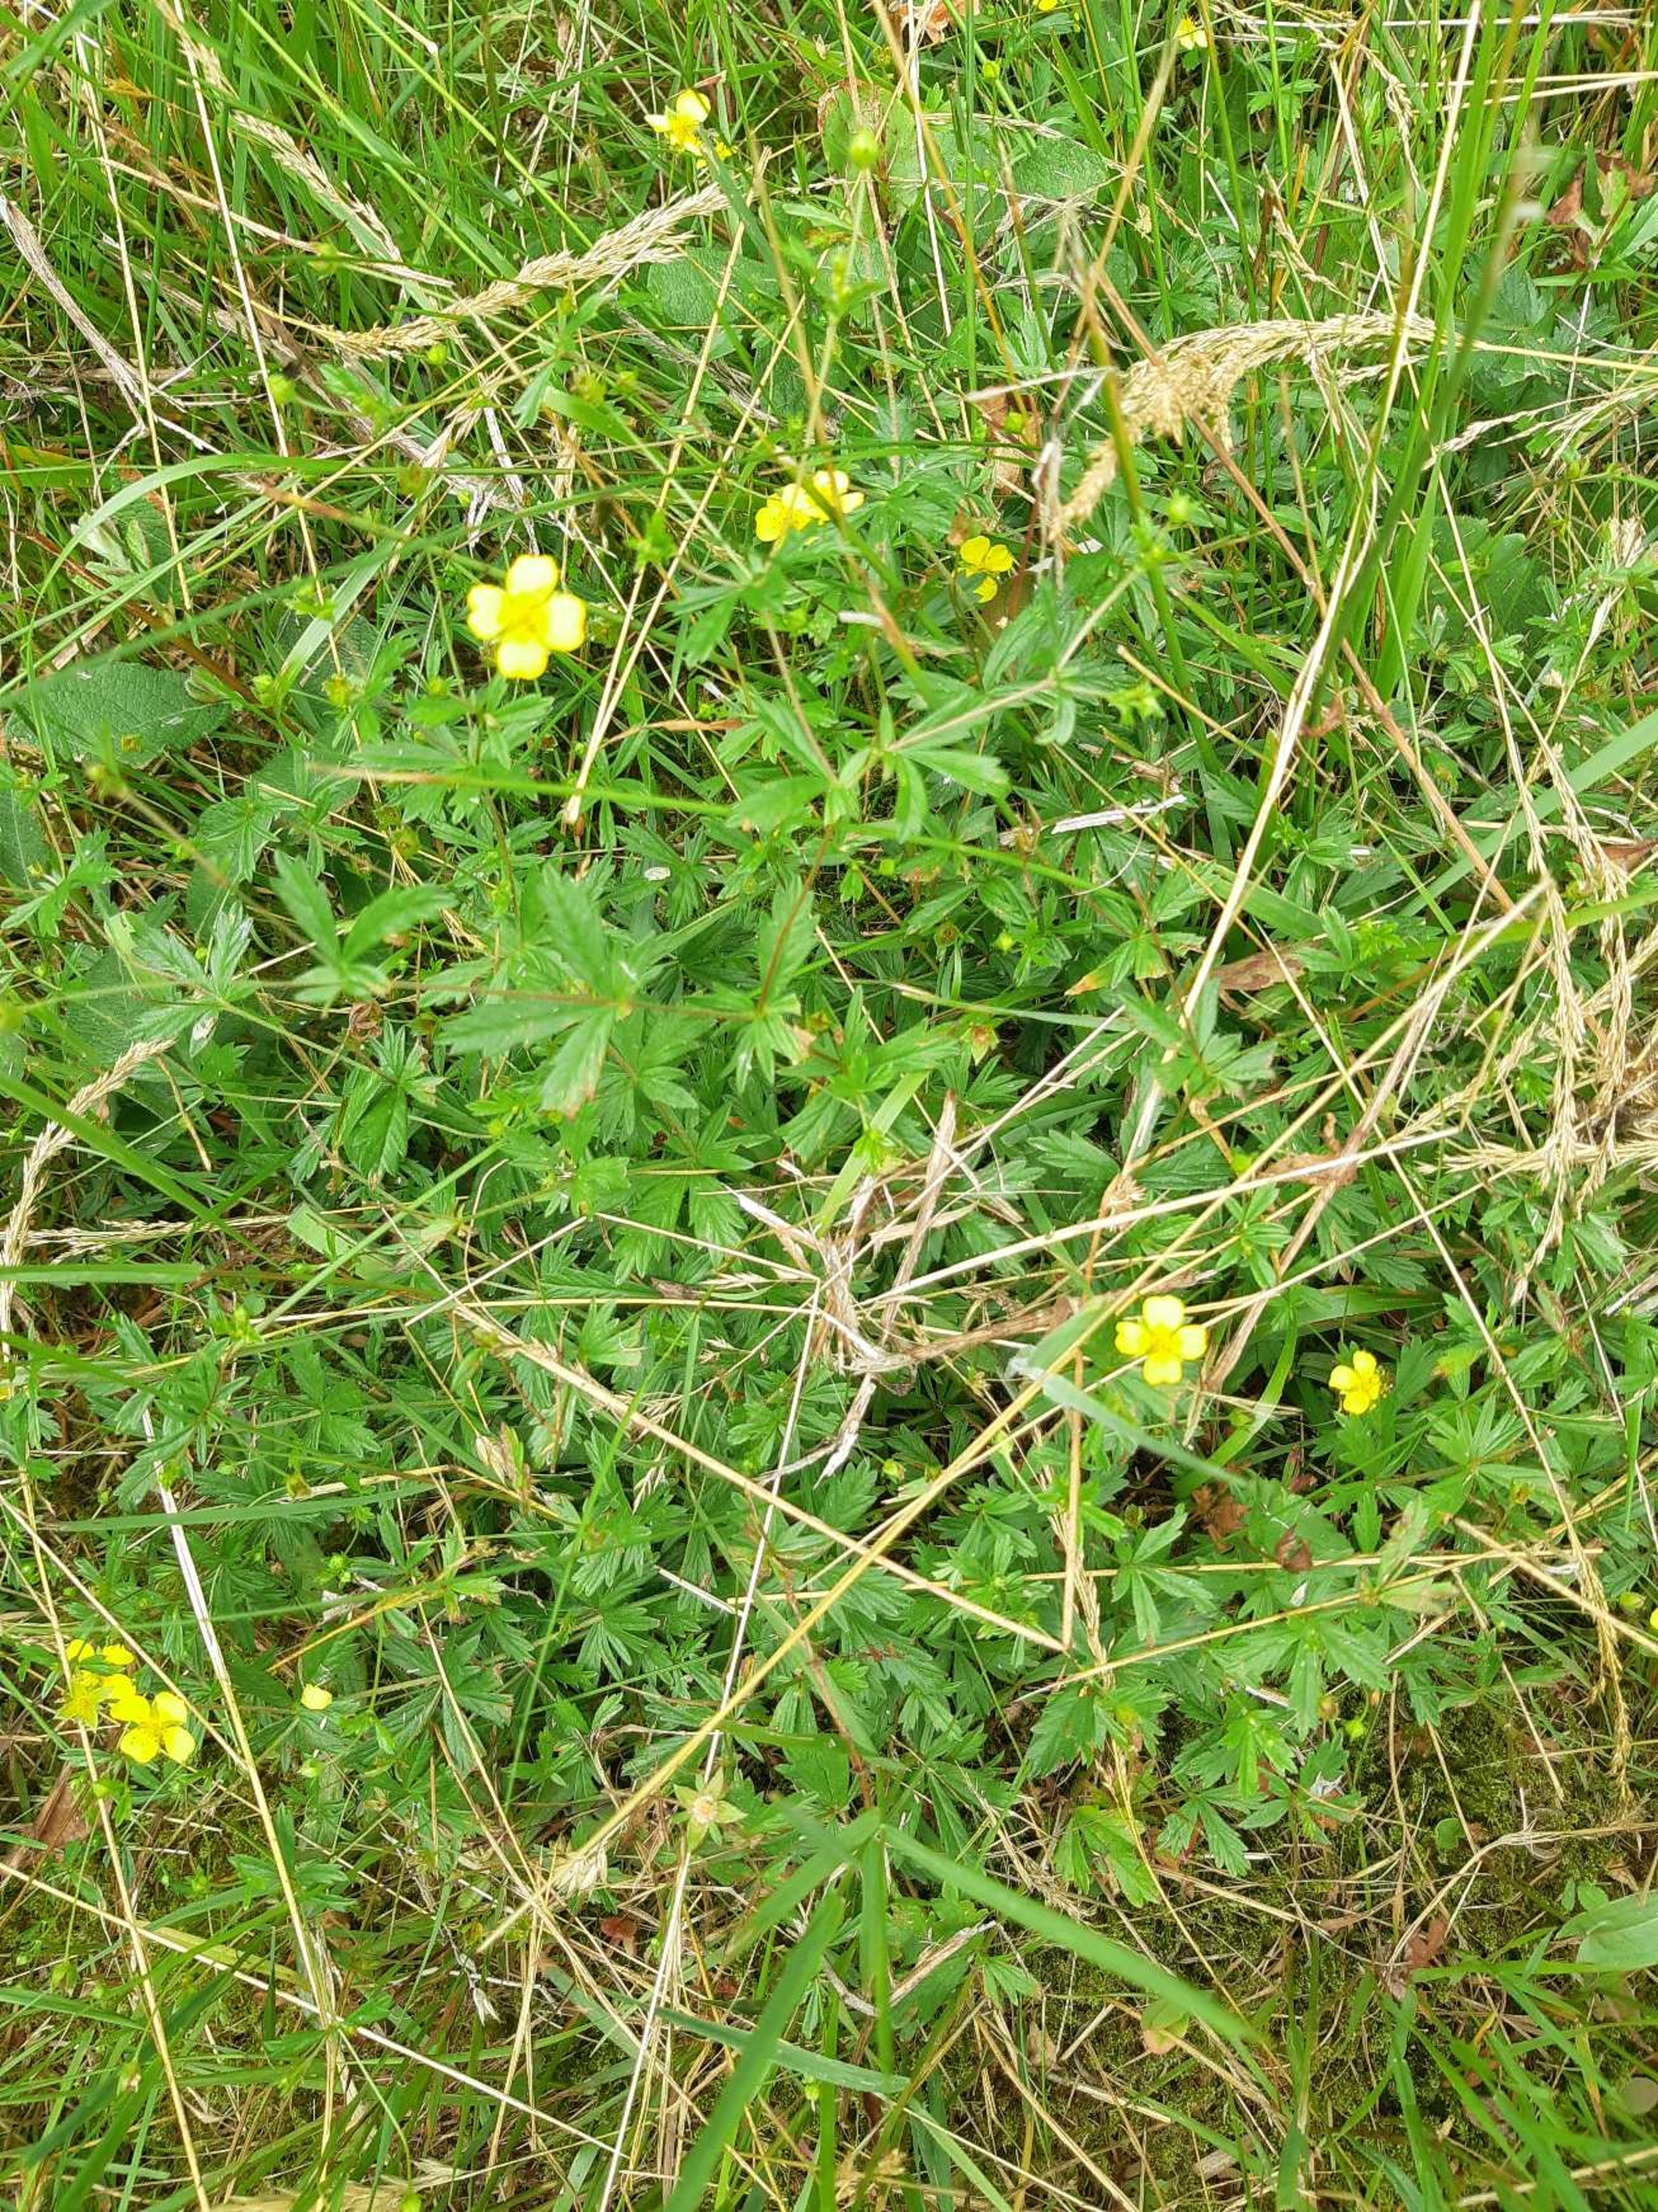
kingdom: Plantae
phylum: Tracheophyta
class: Magnoliopsida
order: Rosales
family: Rosaceae
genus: Potentilla
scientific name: Potentilla erecta
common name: Tormentil
